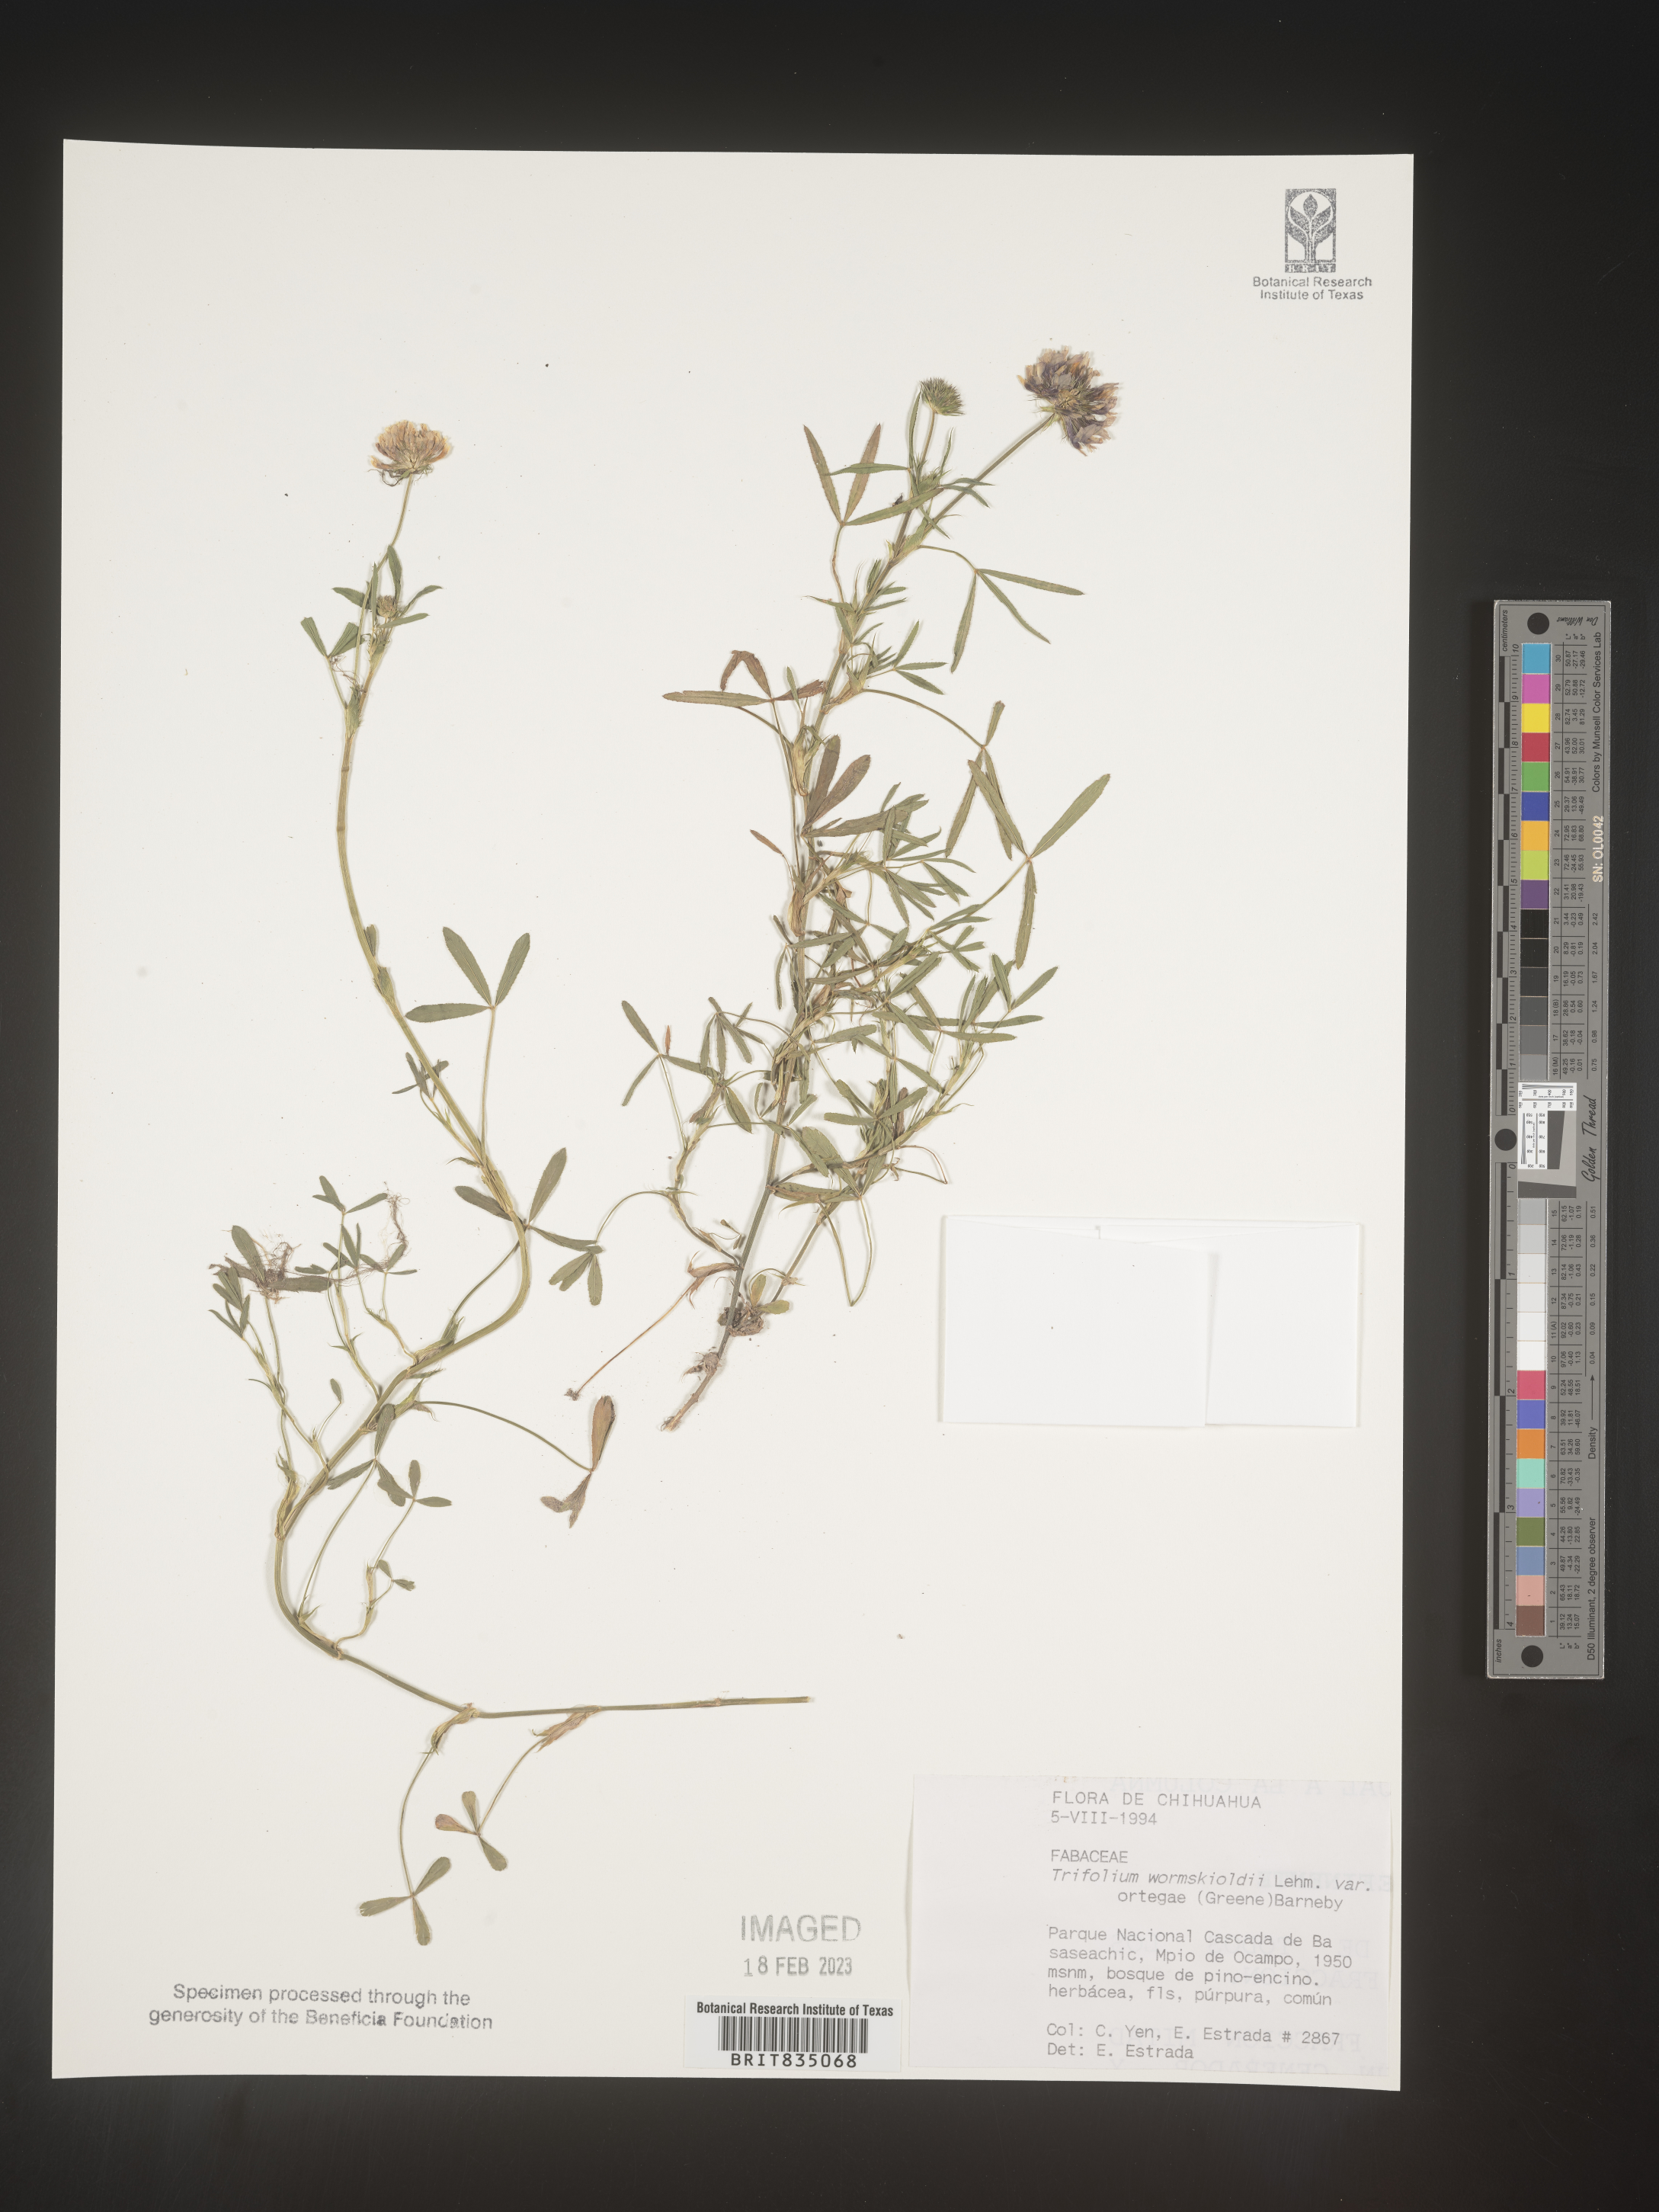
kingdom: Plantae
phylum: Tracheophyta
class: Magnoliopsida
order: Fabales
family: Fabaceae
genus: Trifolium
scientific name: Trifolium
